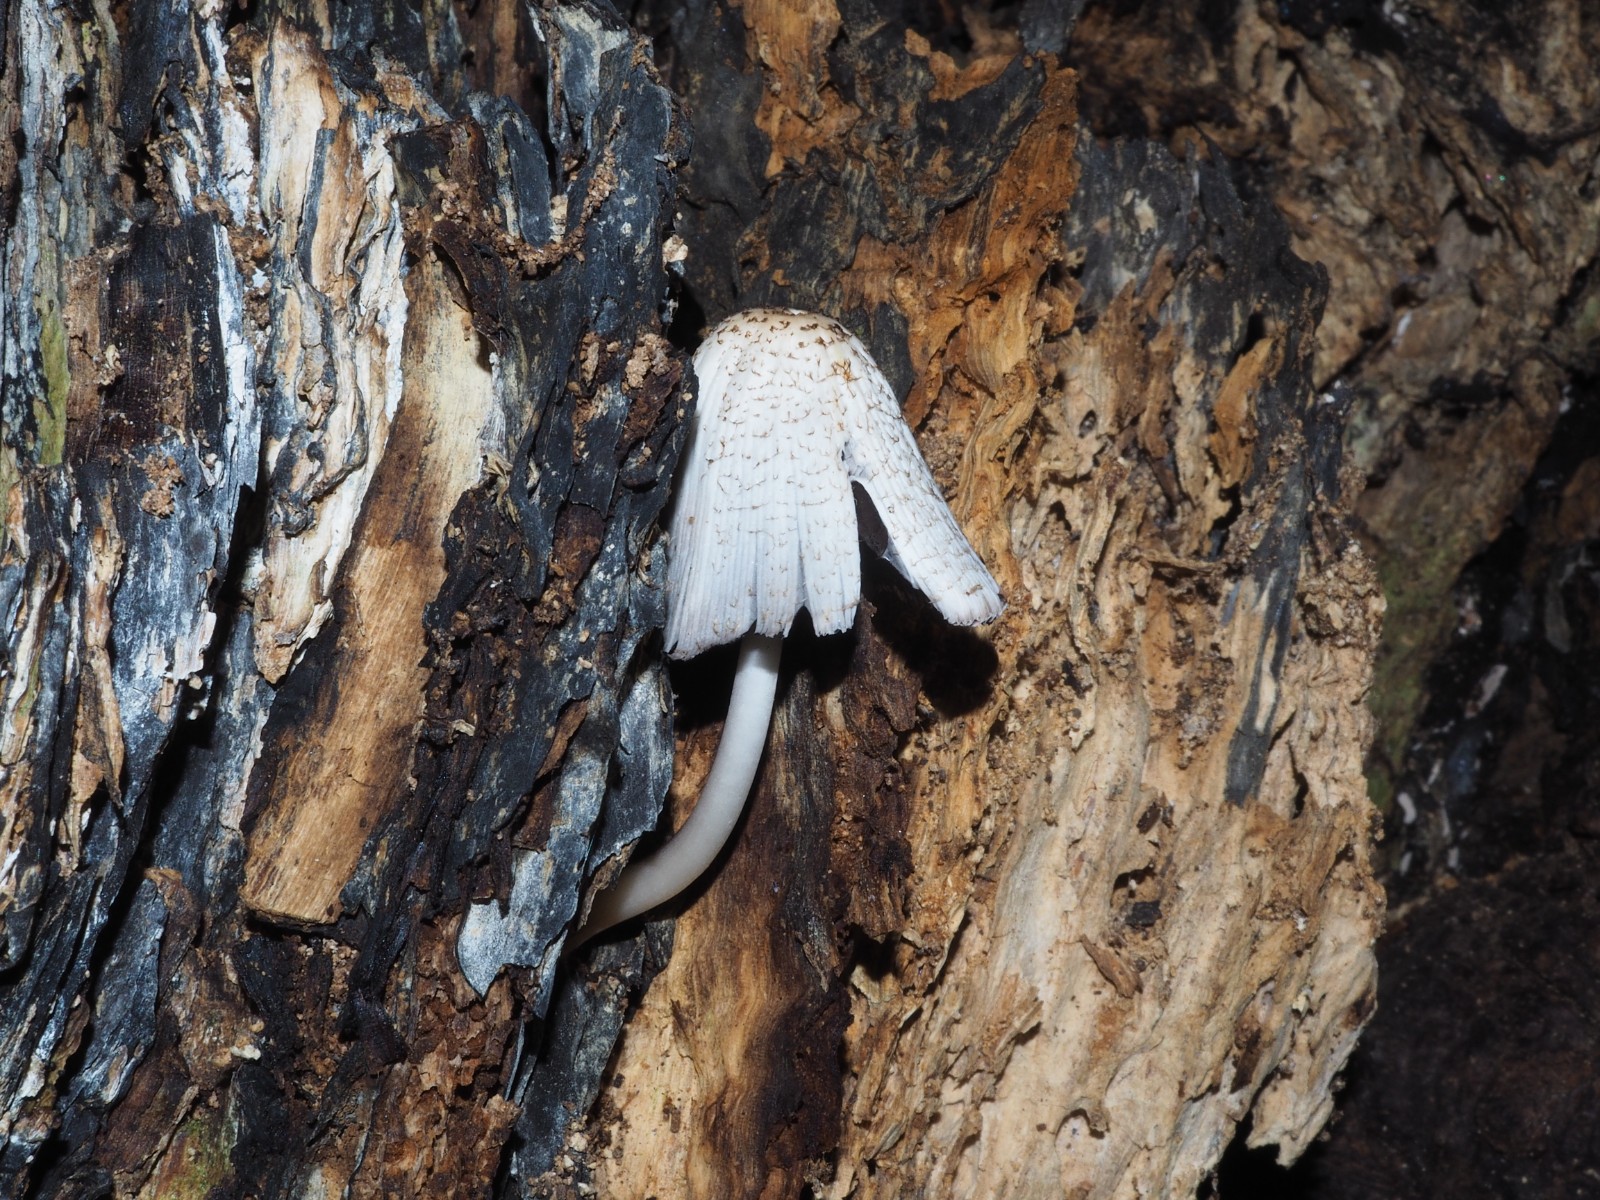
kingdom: Fungi
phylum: Basidiomycota
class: Agaricomycetes
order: Agaricales
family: Psathyrellaceae
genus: Coprinopsis
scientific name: Coprinopsis mitrispora
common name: hul-blækhat
